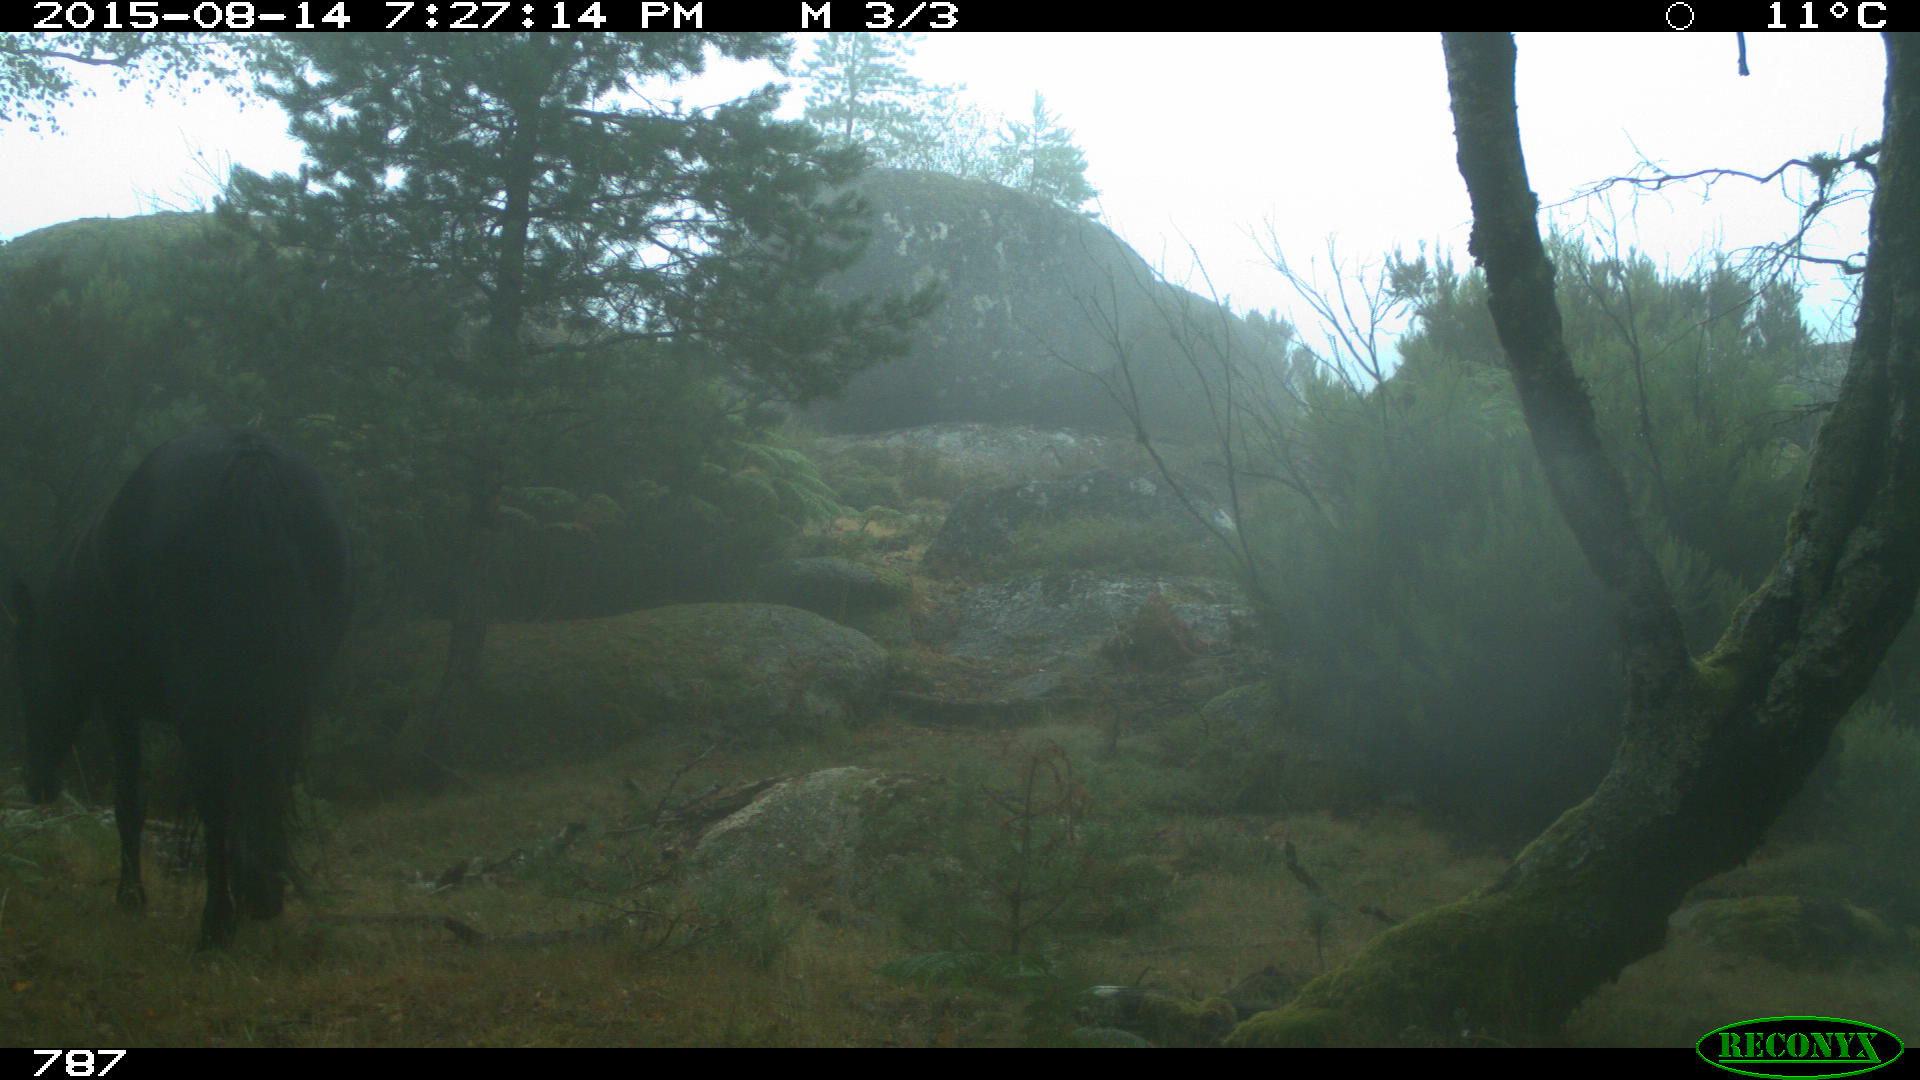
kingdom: Animalia
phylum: Chordata
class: Mammalia
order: Perissodactyla
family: Equidae
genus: Equus
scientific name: Equus caballus
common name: Horse
